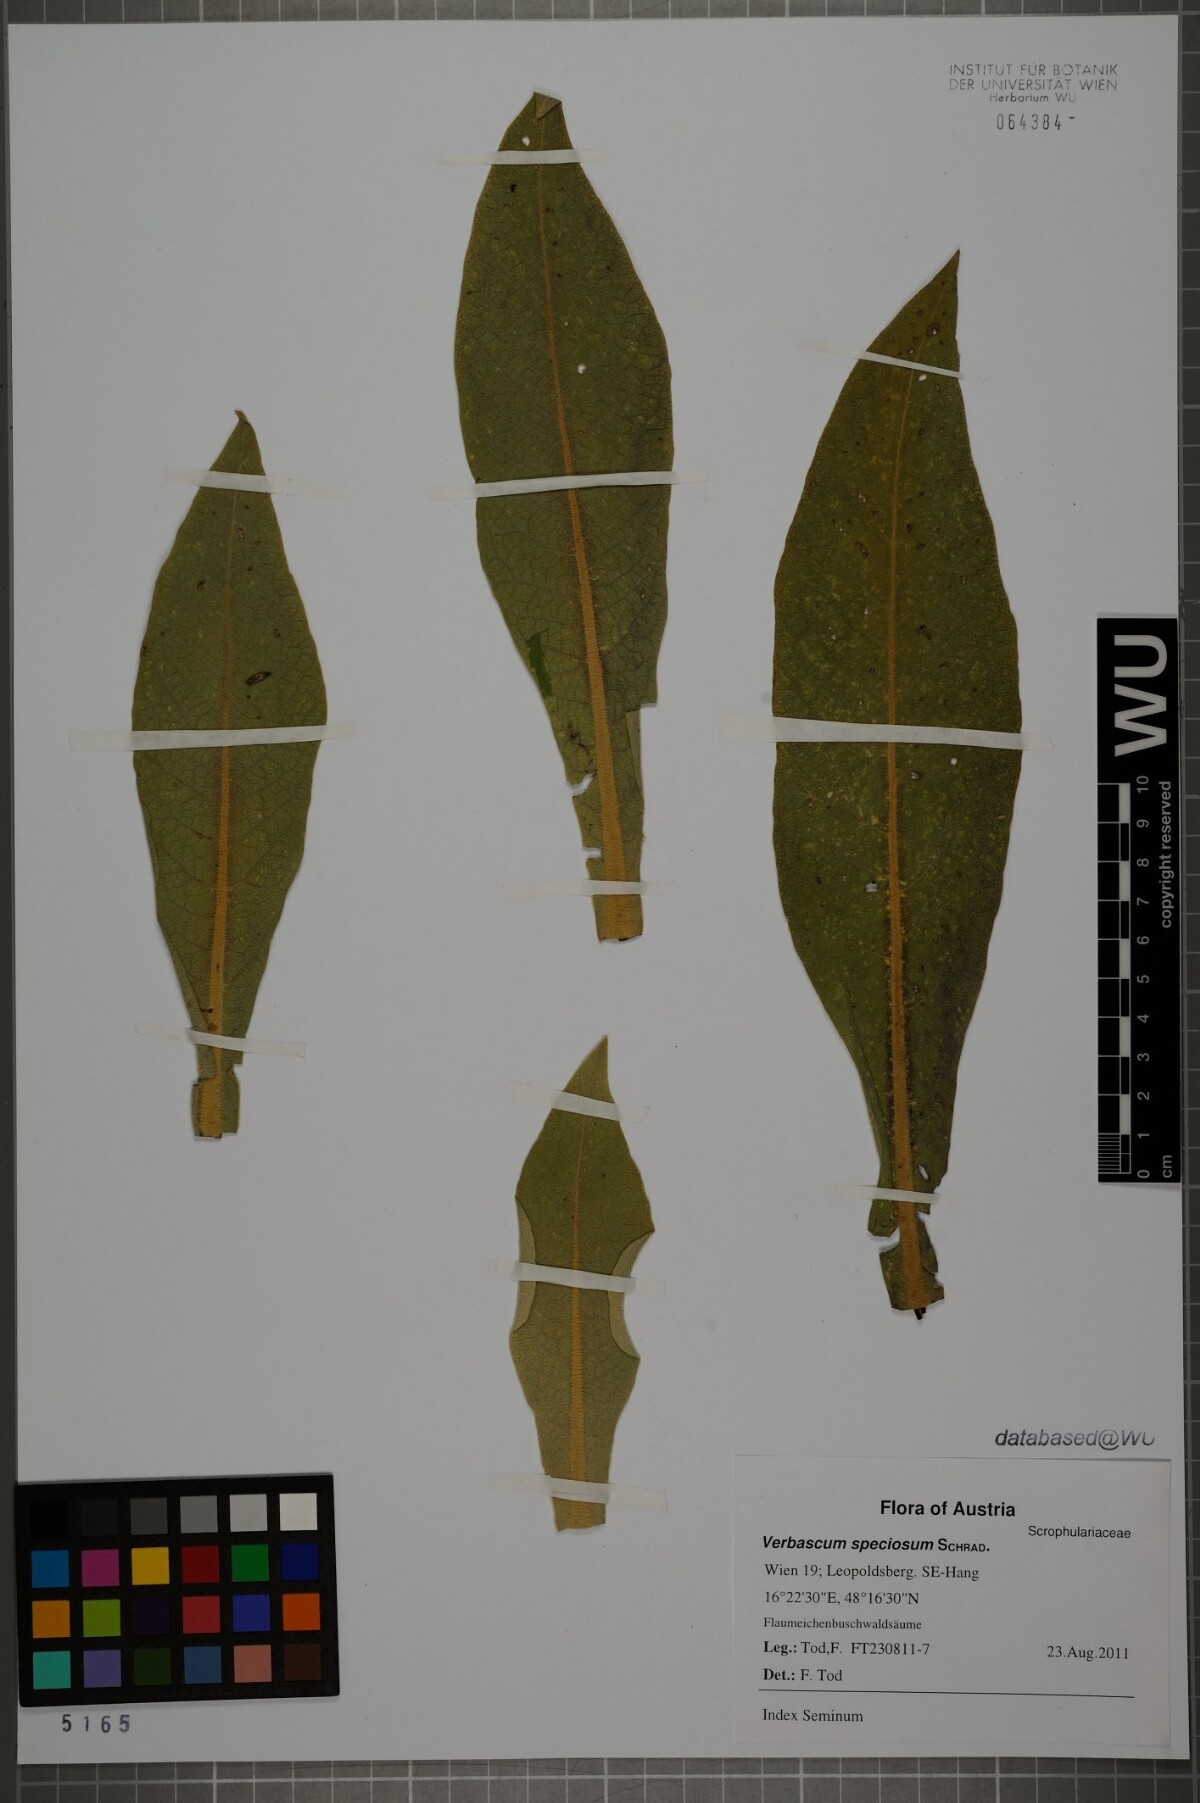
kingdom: Plantae
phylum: Tracheophyta
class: Magnoliopsida
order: Lamiales
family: Scrophulariaceae
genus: Verbascum
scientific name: Verbascum speciosum
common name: Hungarian mullein
